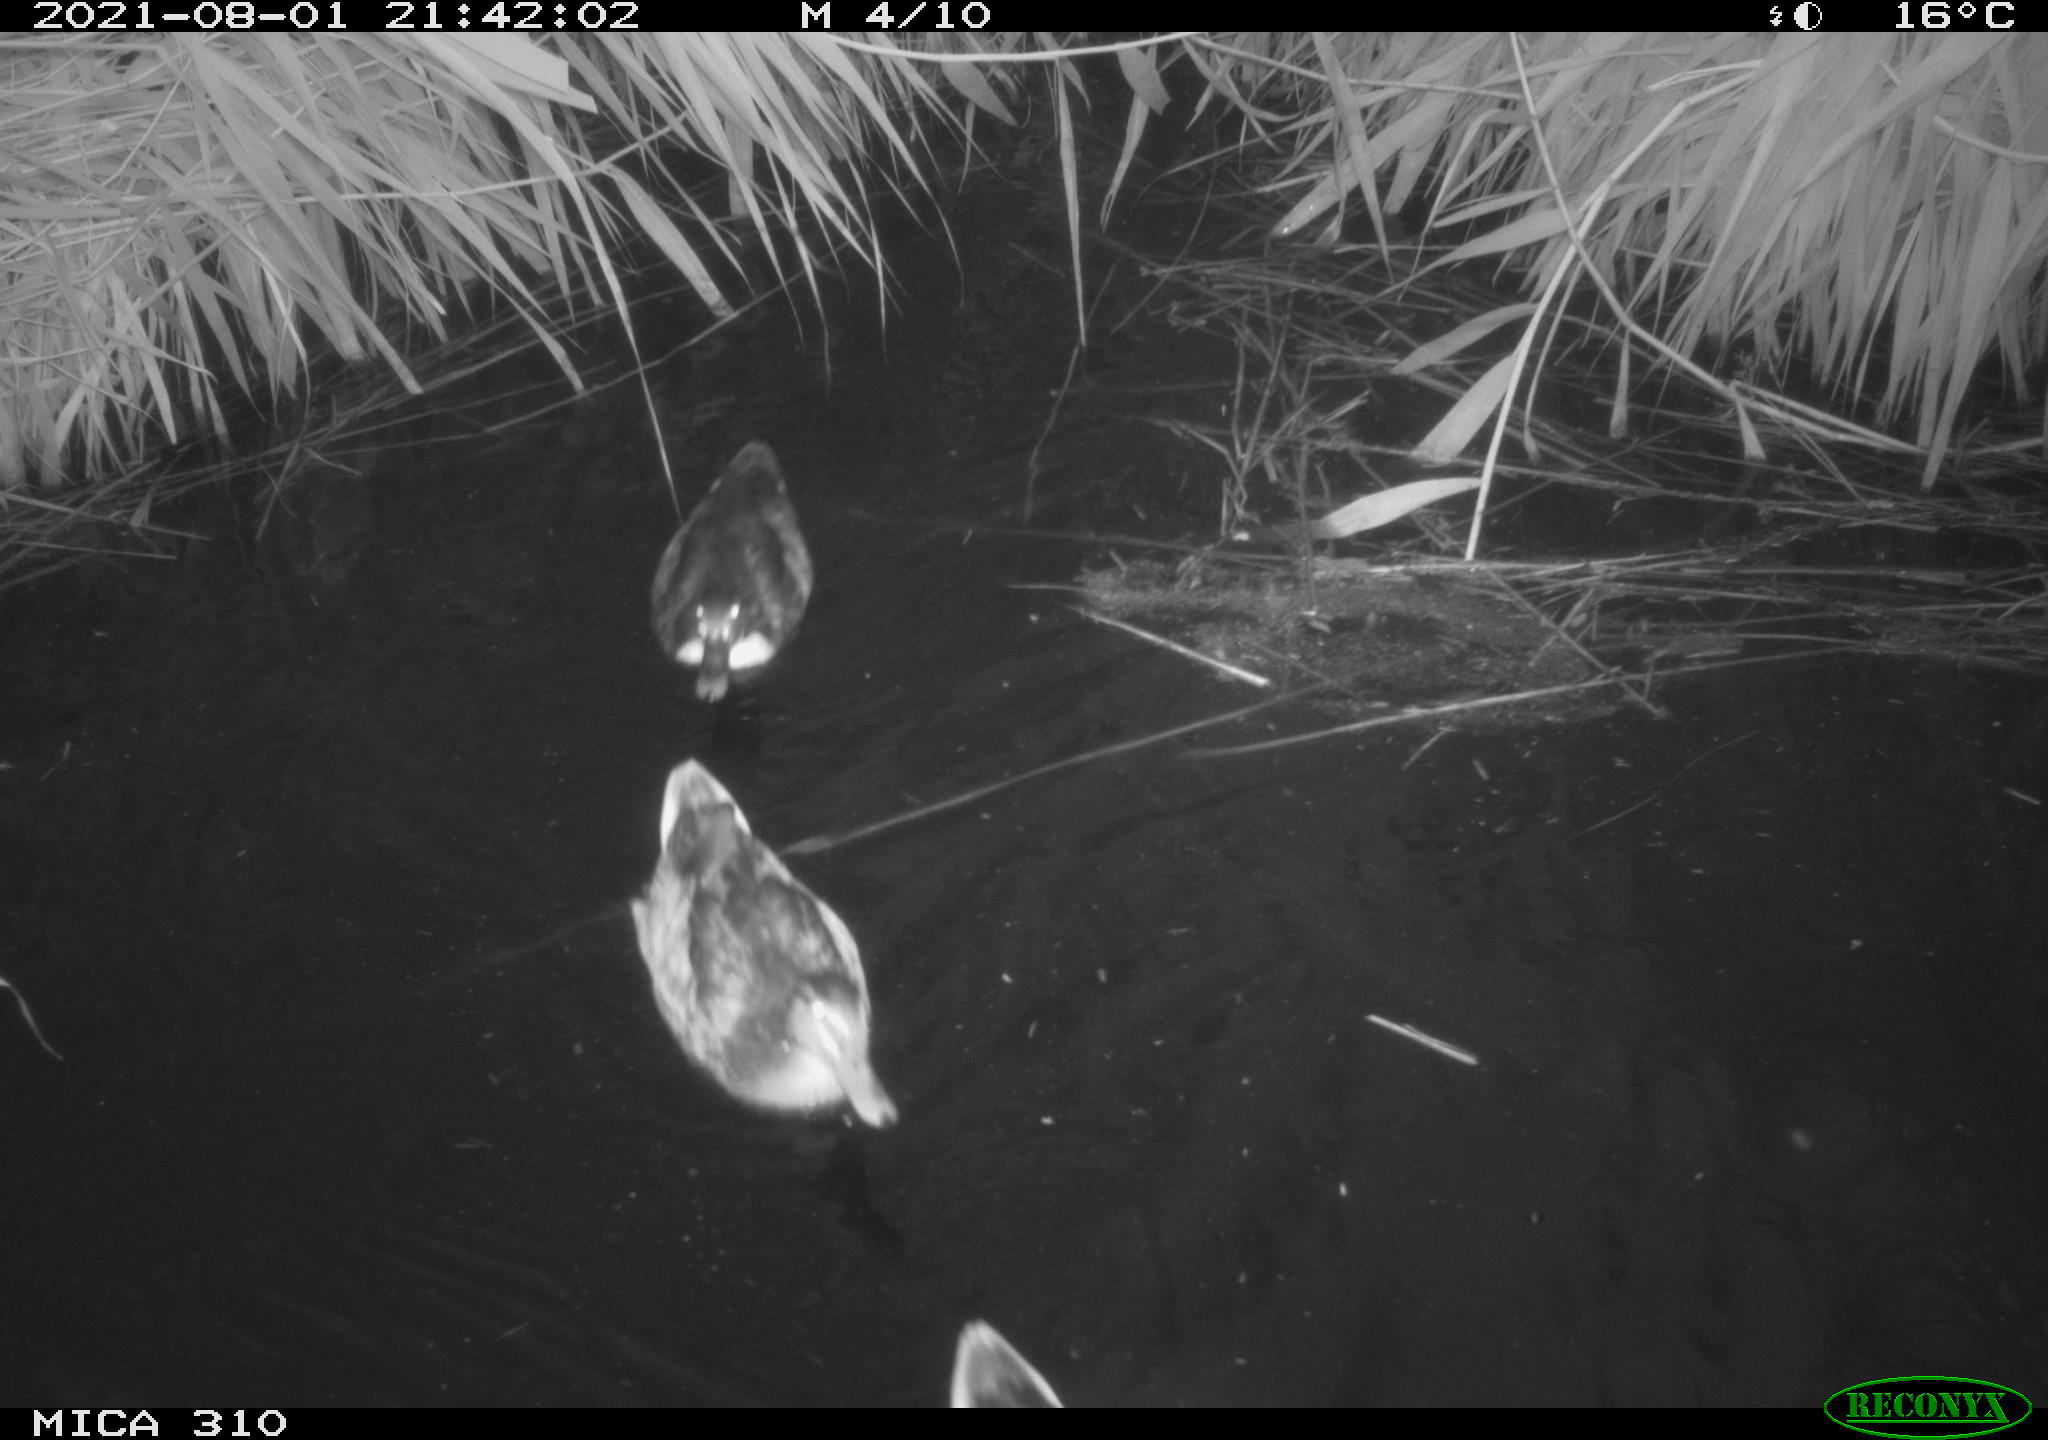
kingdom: Animalia
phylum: Chordata
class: Aves
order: Anseriformes
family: Anatidae
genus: Anas
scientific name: Anas platyrhynchos
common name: Mallard
